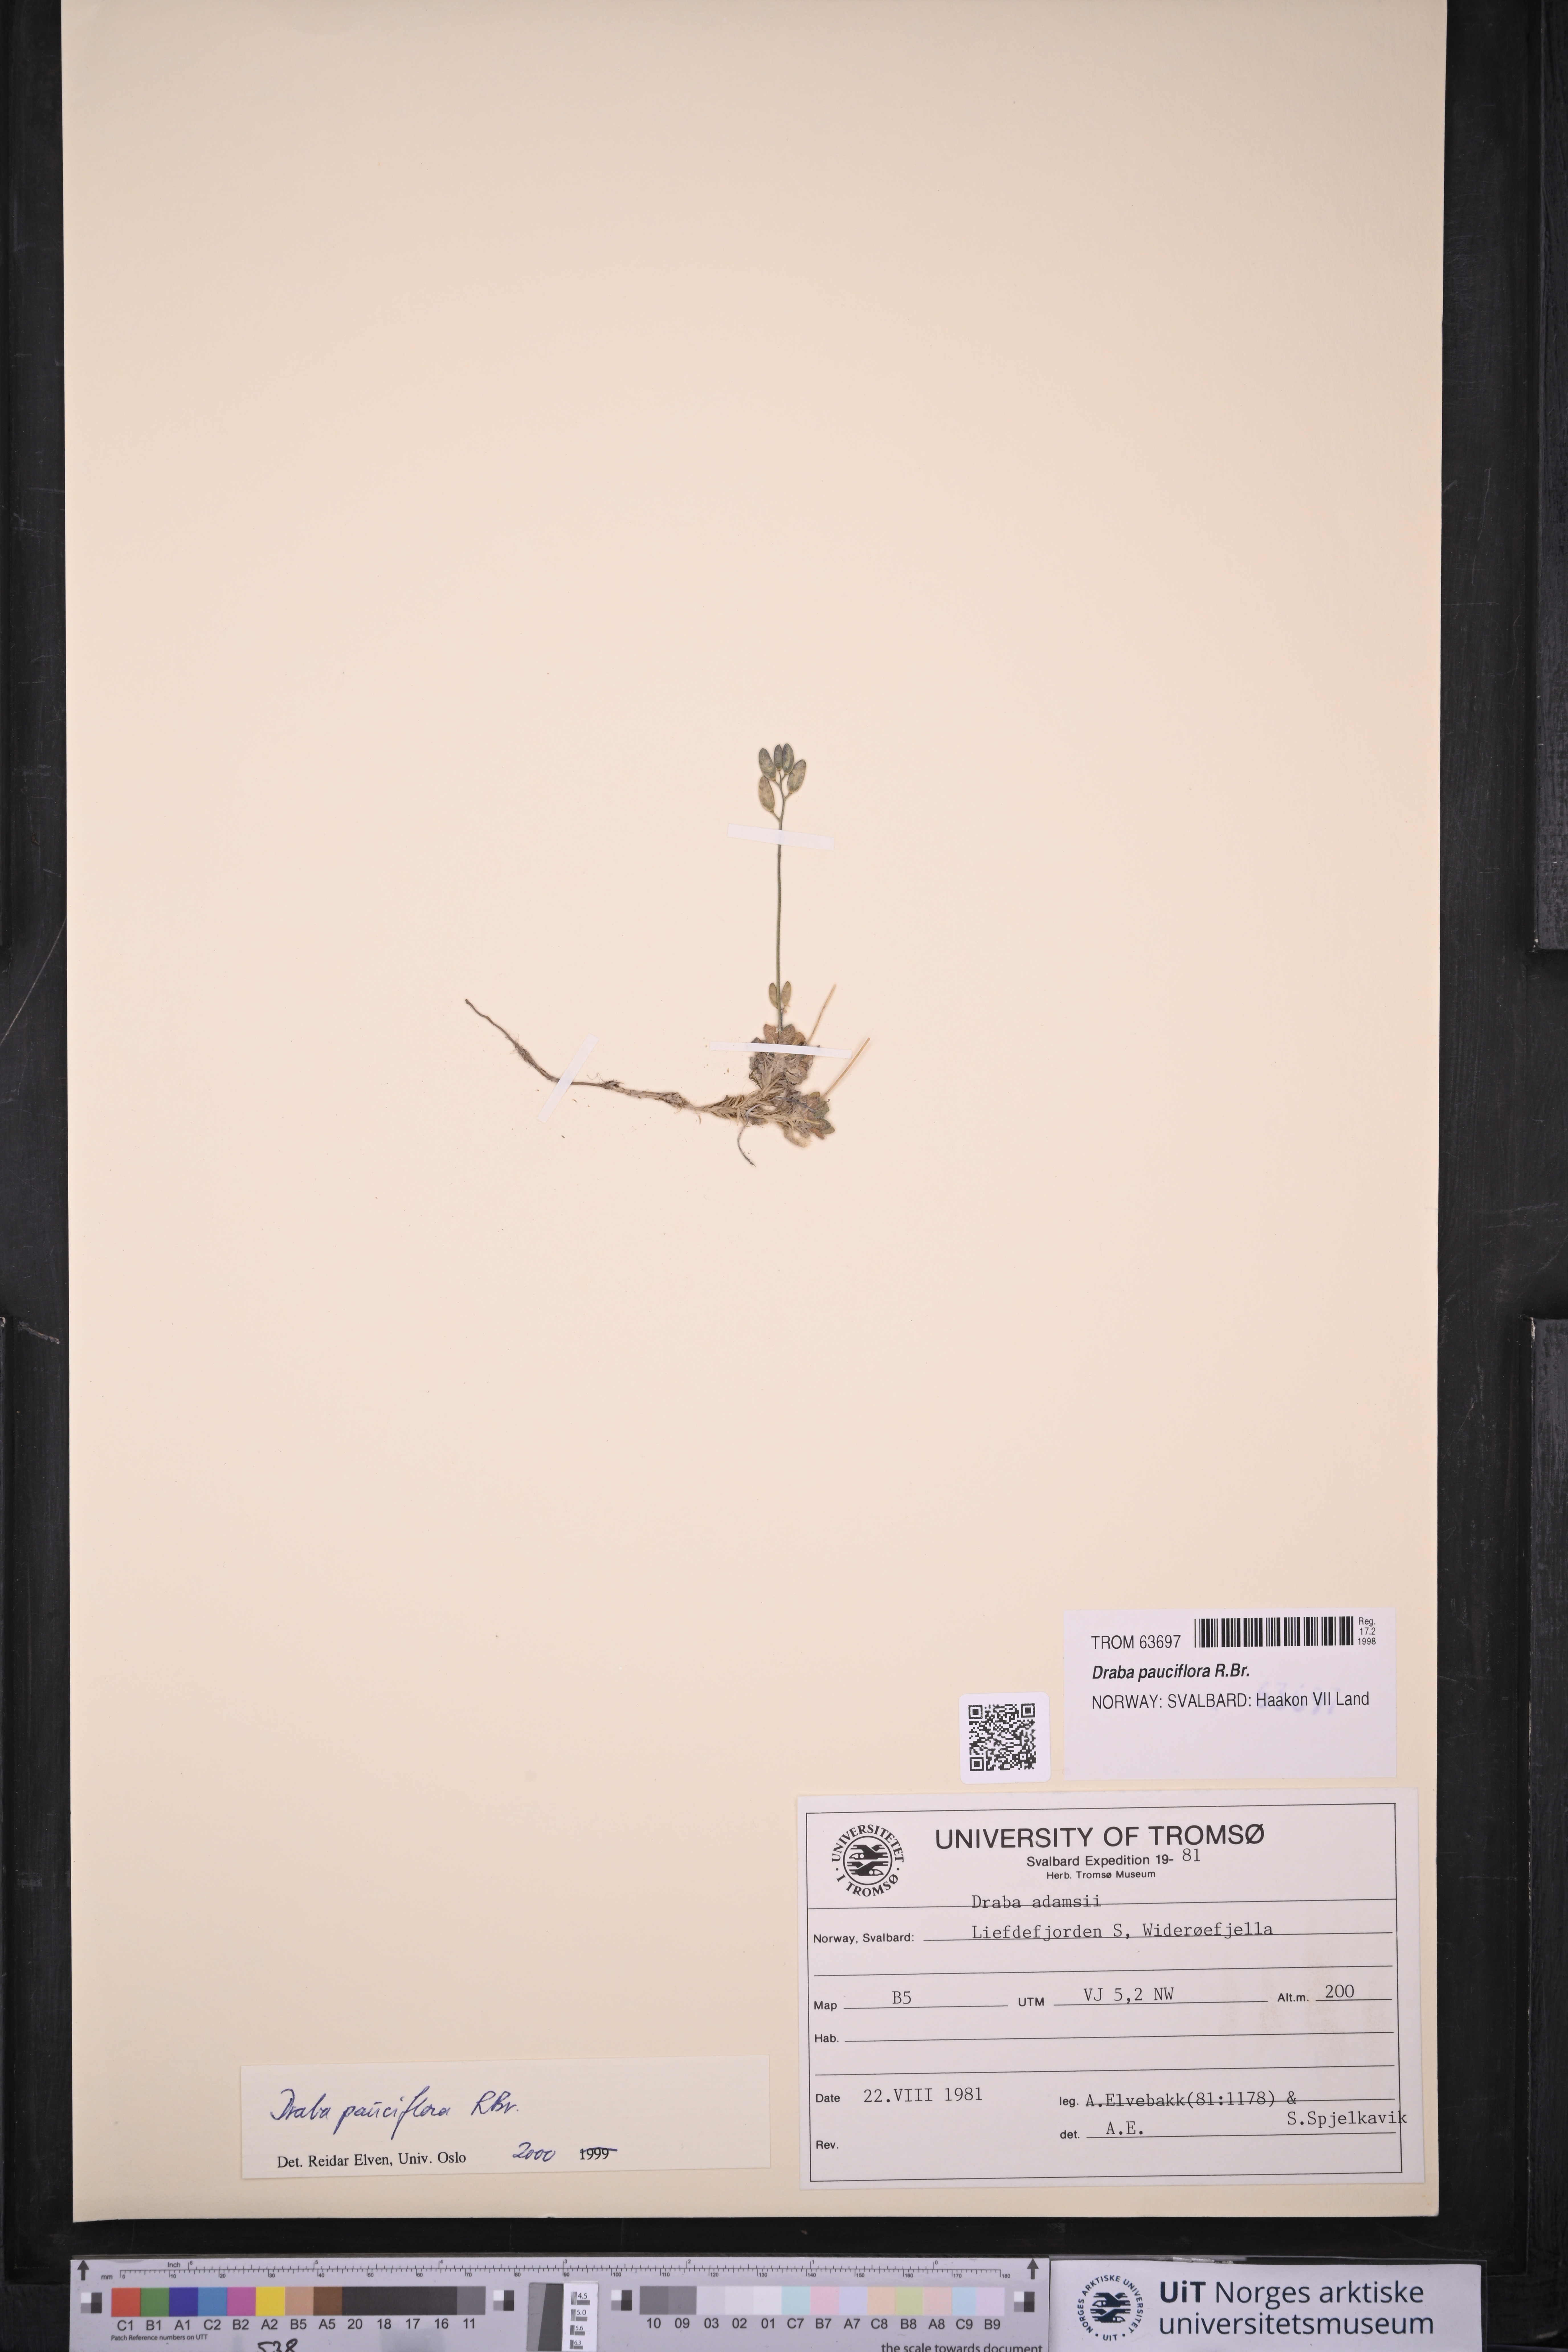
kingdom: Plantae
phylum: Tracheophyta
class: Magnoliopsida
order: Brassicales
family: Brassicaceae
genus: Draba
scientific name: Draba pauciflora
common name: Few-flowered draba
